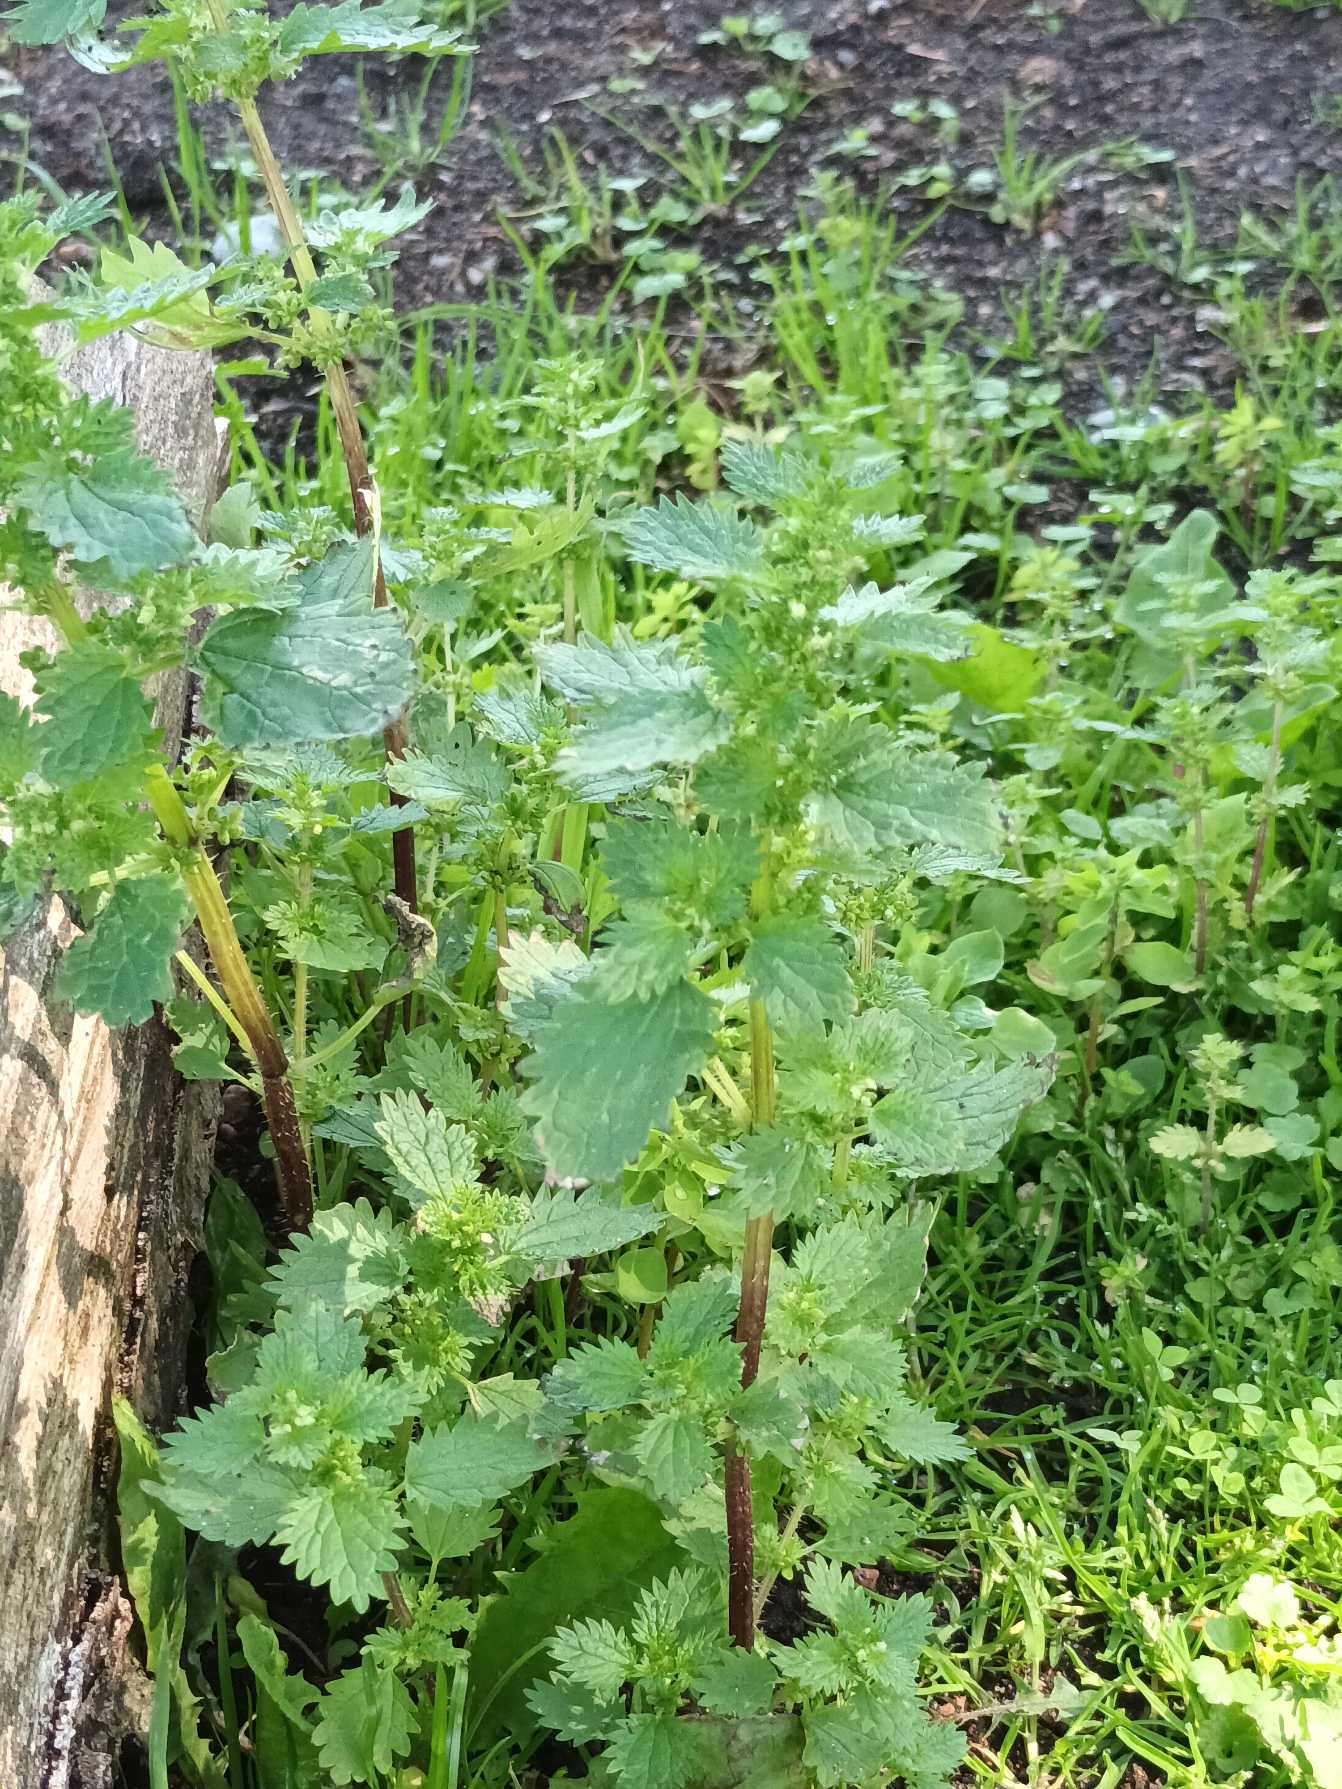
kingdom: Plantae
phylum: Tracheophyta
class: Magnoliopsida
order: Rosales
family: Urticaceae
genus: Urtica
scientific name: Urtica urens
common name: Liden nælde
